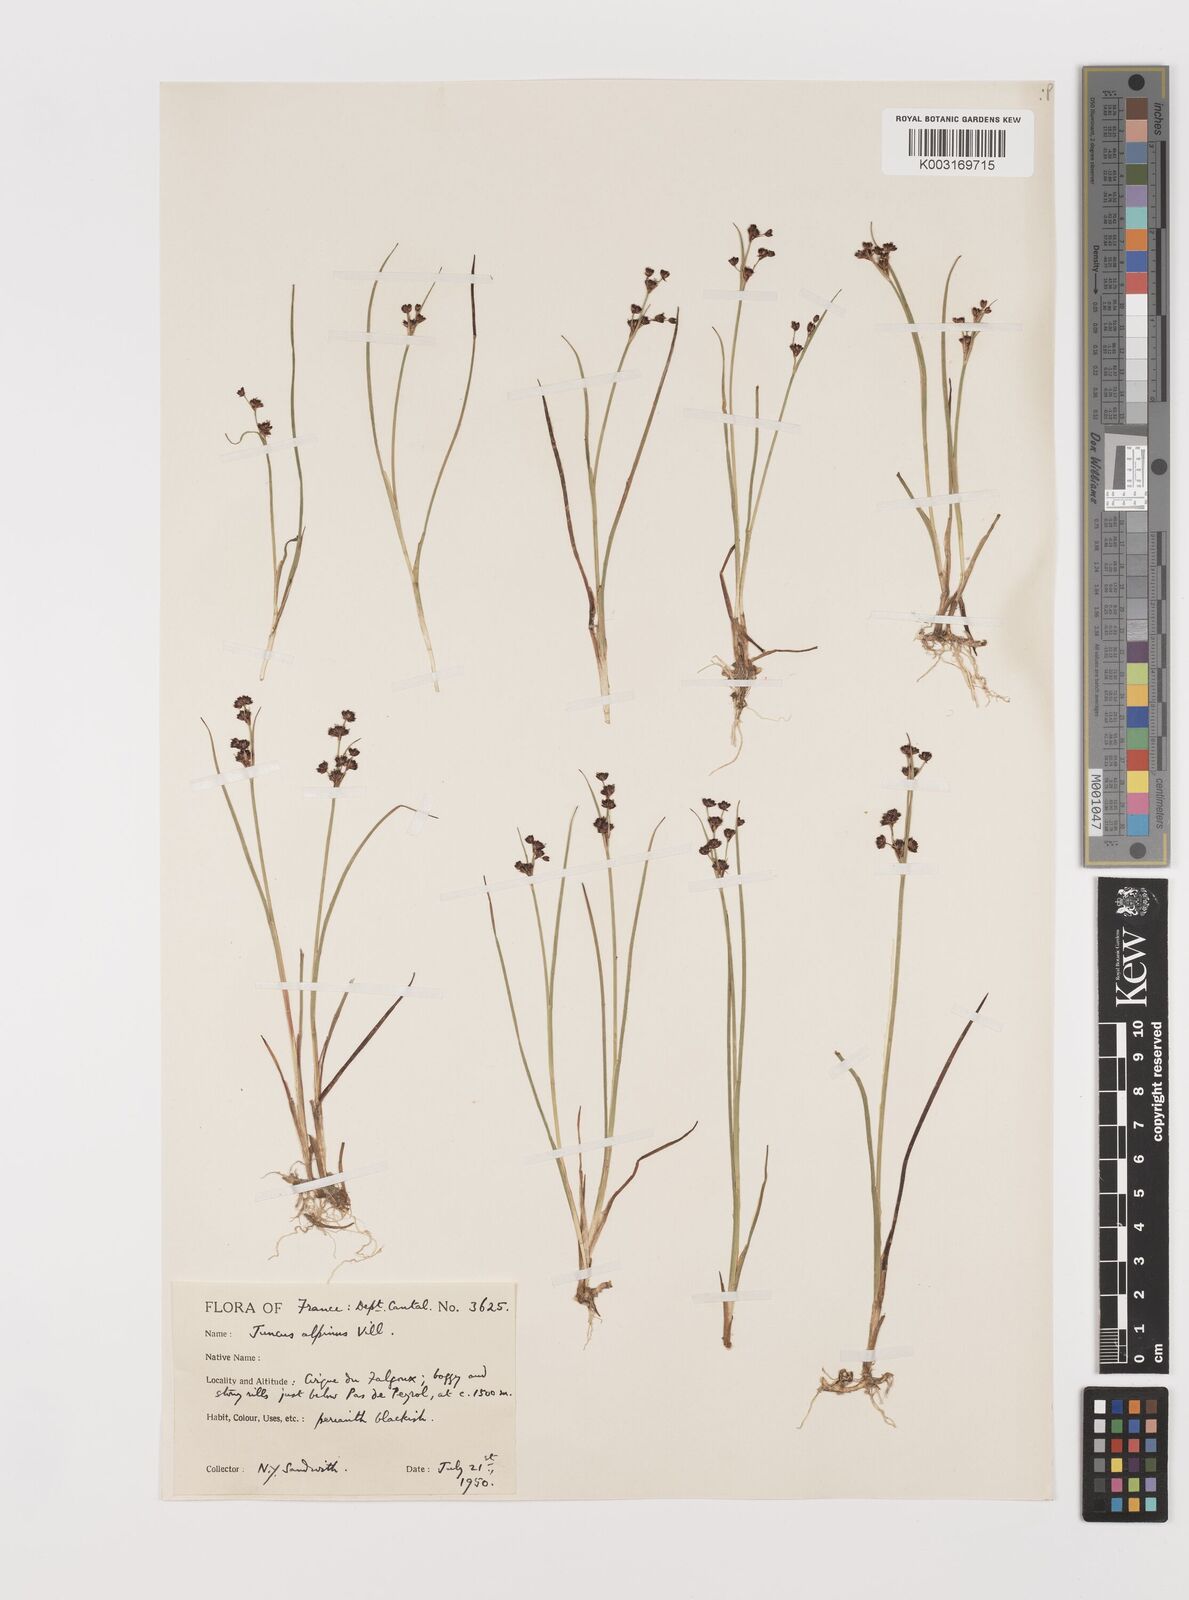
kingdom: Plantae
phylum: Tracheophyta
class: Liliopsida
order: Poales
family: Juncaceae
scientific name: Juncaceae
